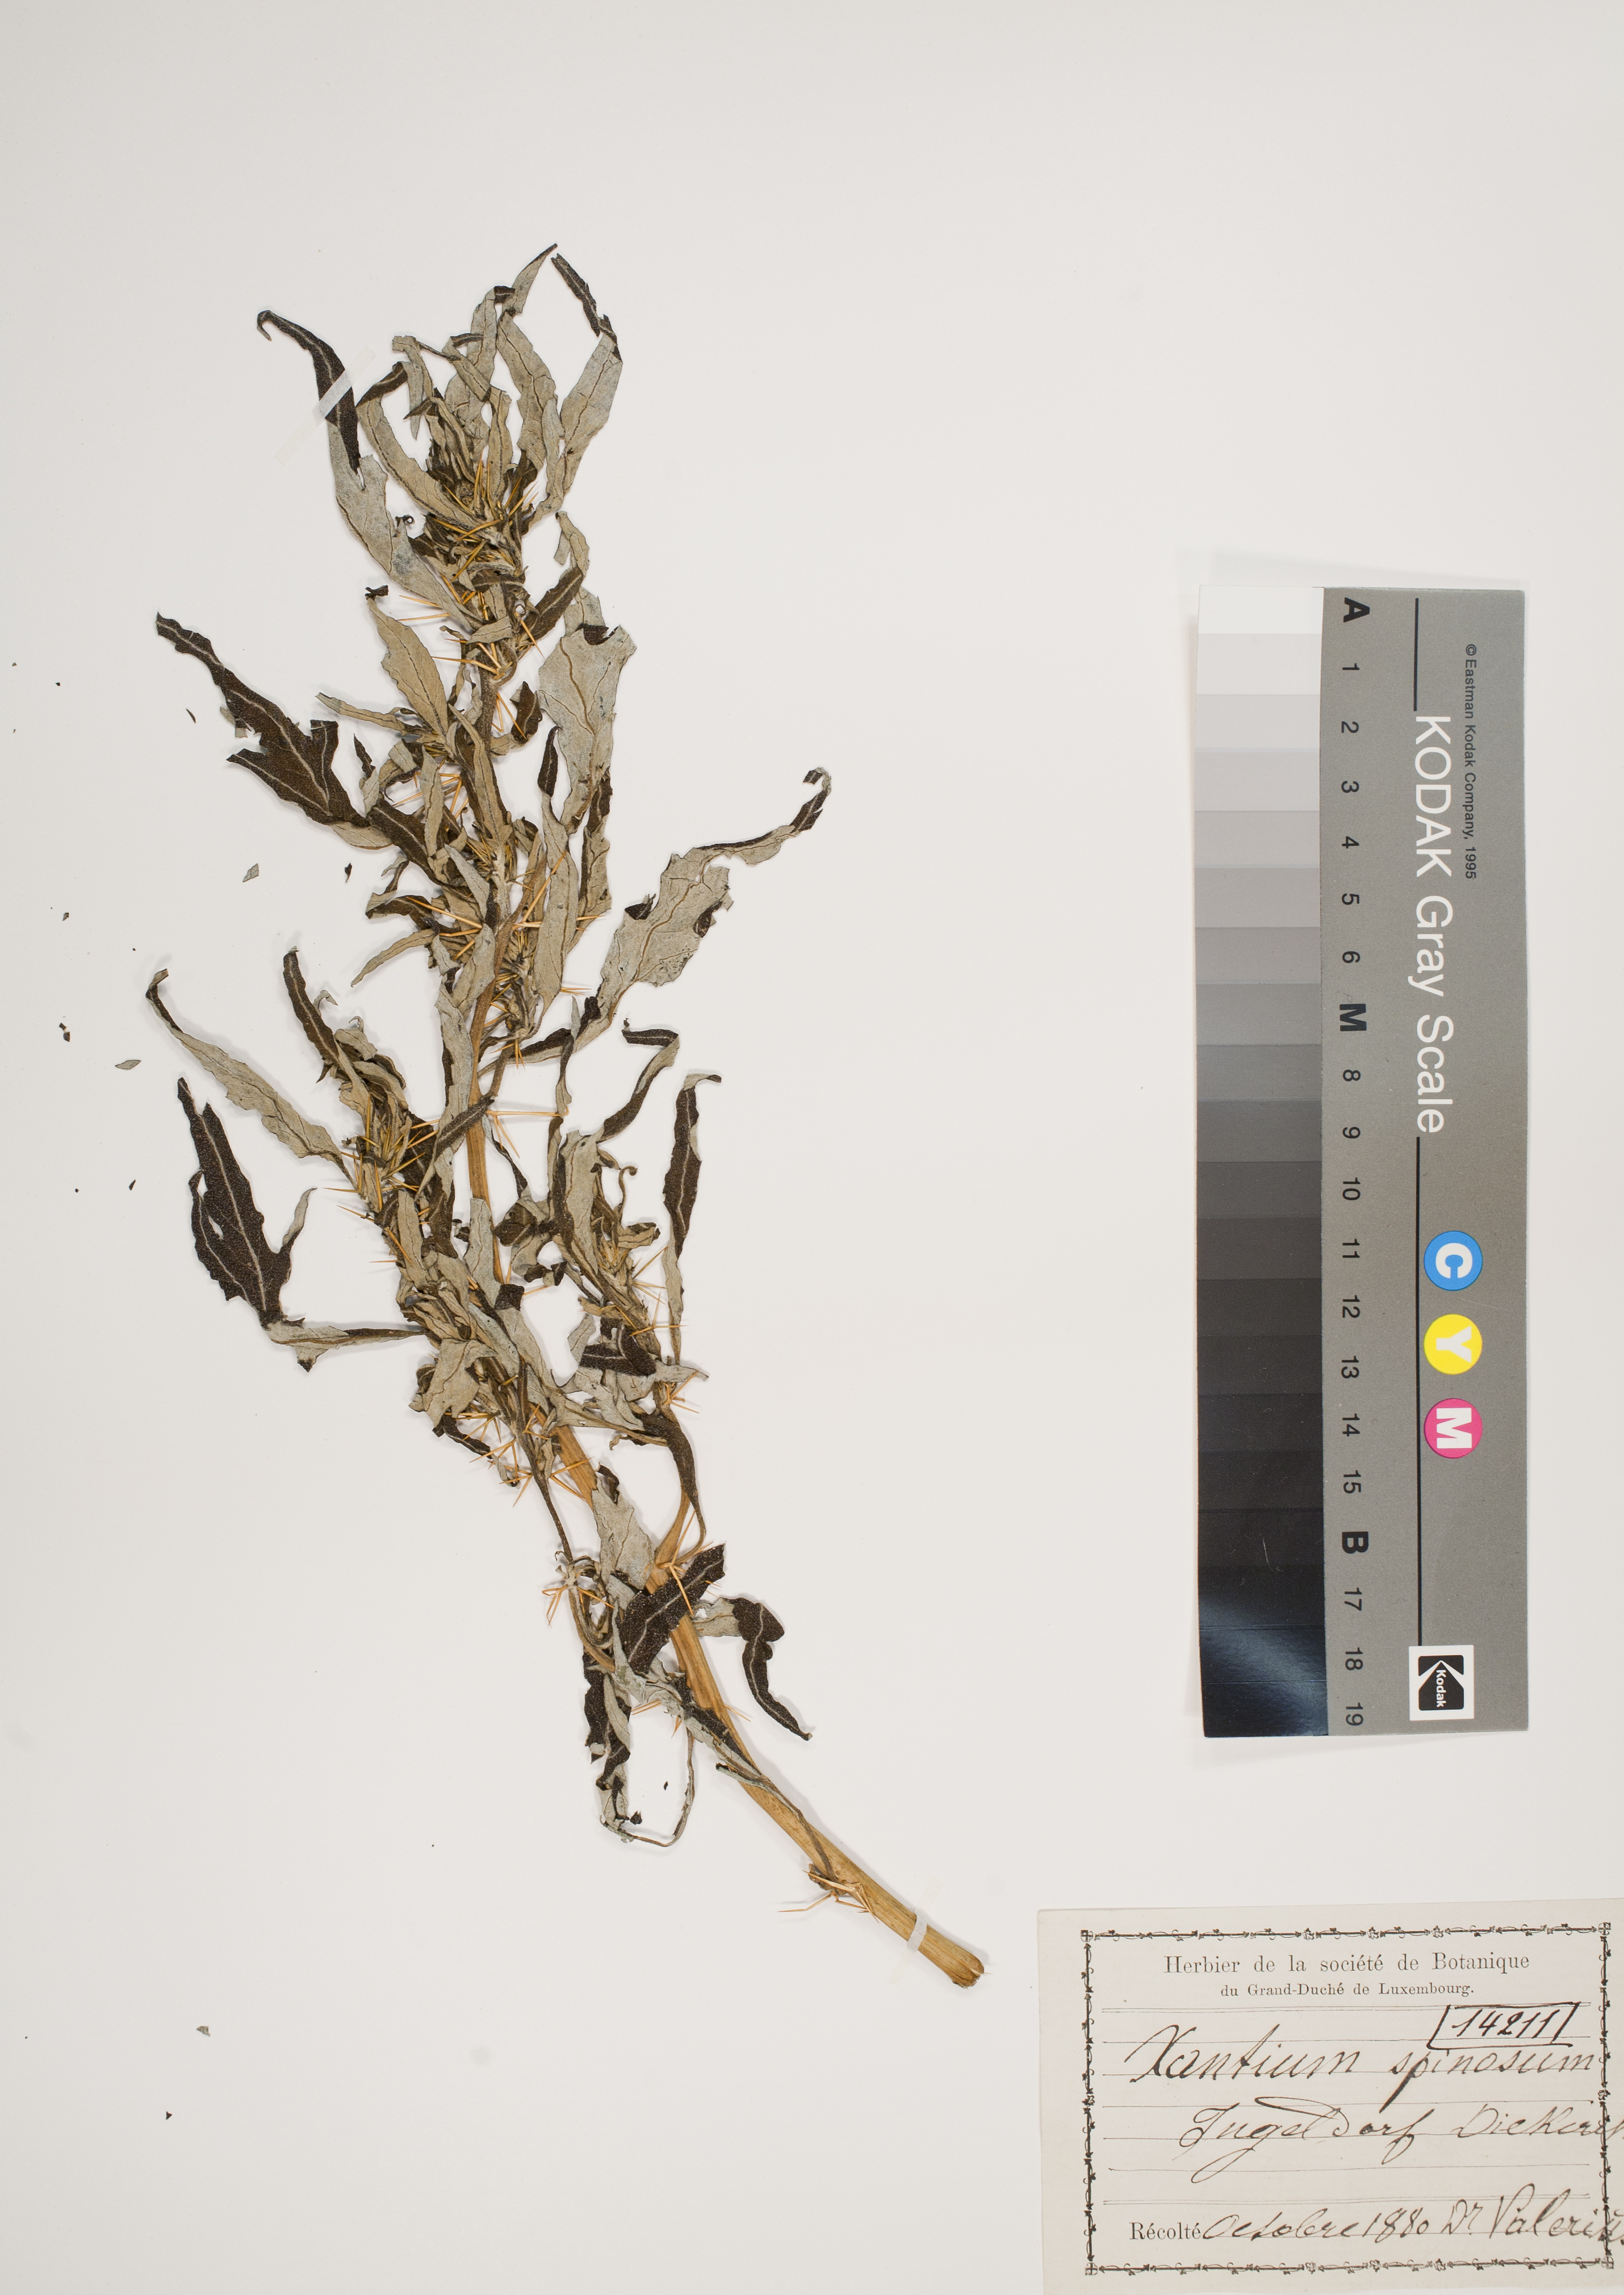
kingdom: Plantae
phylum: Tracheophyta
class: Magnoliopsida
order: Asterales
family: Asteraceae
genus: Xanthium
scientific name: Xanthium spinosum
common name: Spiny cocklebur
